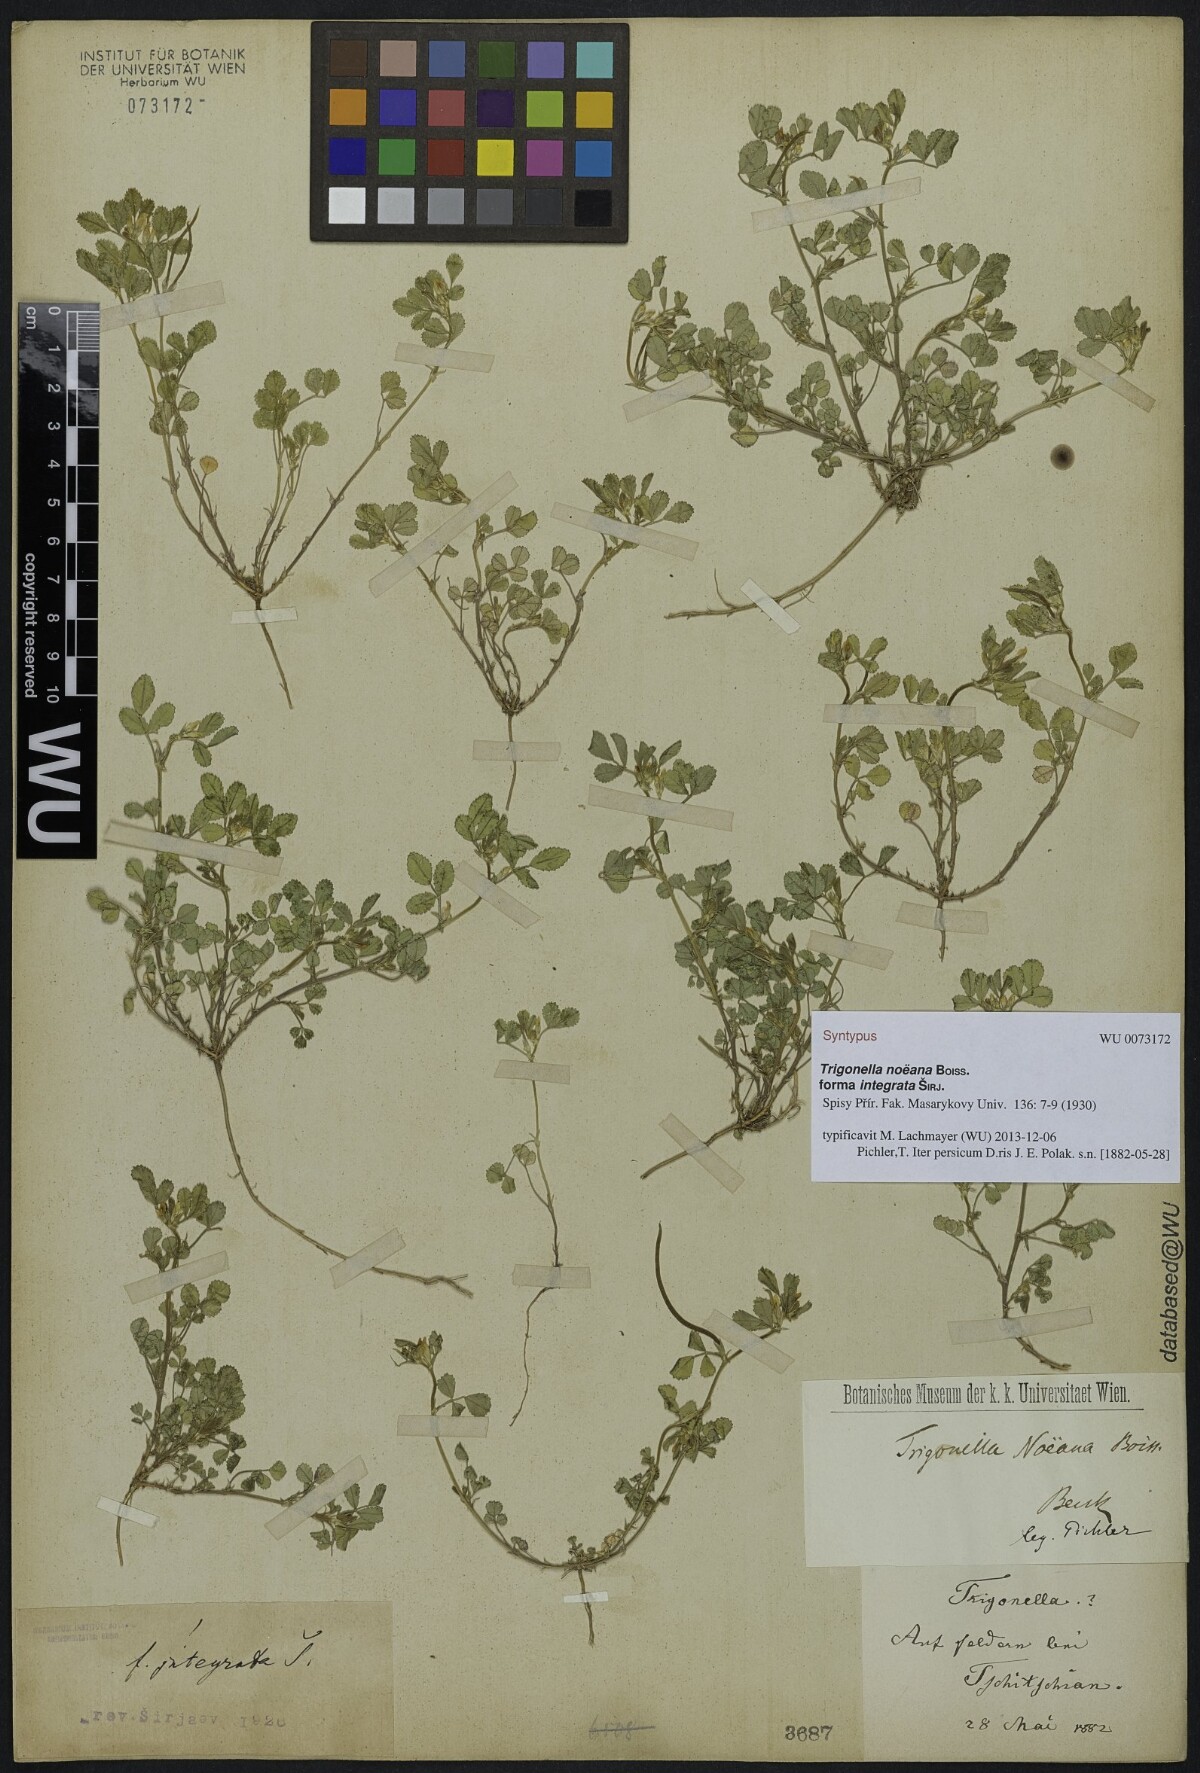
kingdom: Plantae
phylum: Tracheophyta
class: Magnoliopsida
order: Fabales
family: Fabaceae
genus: Medicago
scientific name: Medicago monantha
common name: Medick
